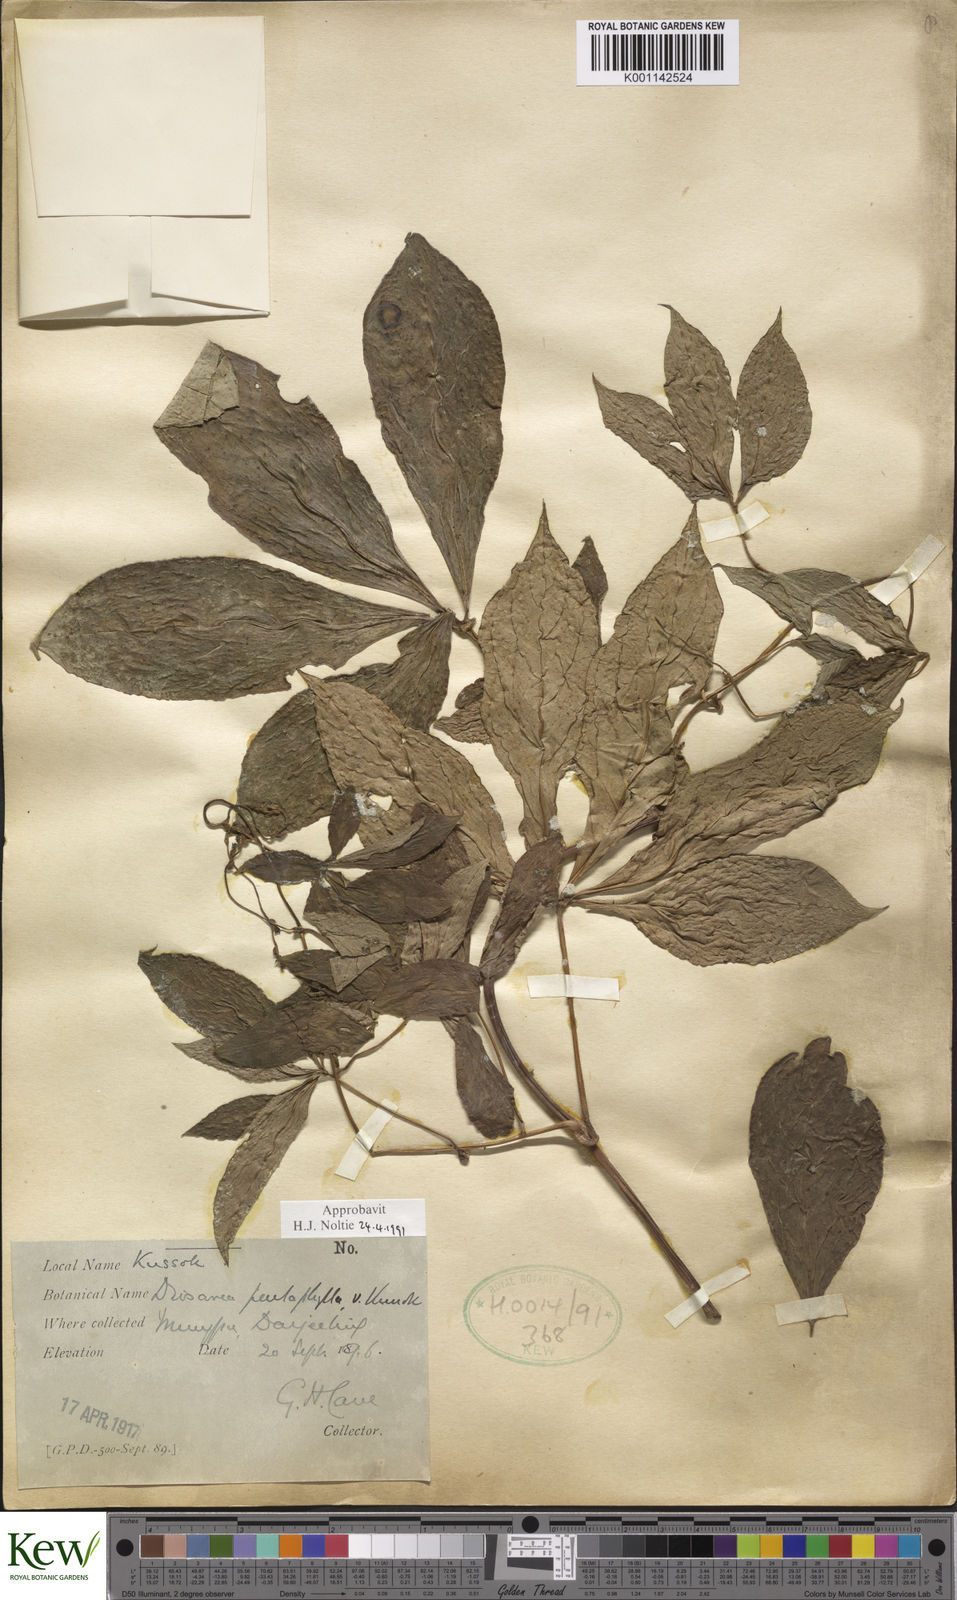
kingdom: Plantae
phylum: Tracheophyta
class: Liliopsida
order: Dioscoreales
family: Dioscoreaceae
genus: Dioscorea
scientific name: Dioscorea pentaphylla
